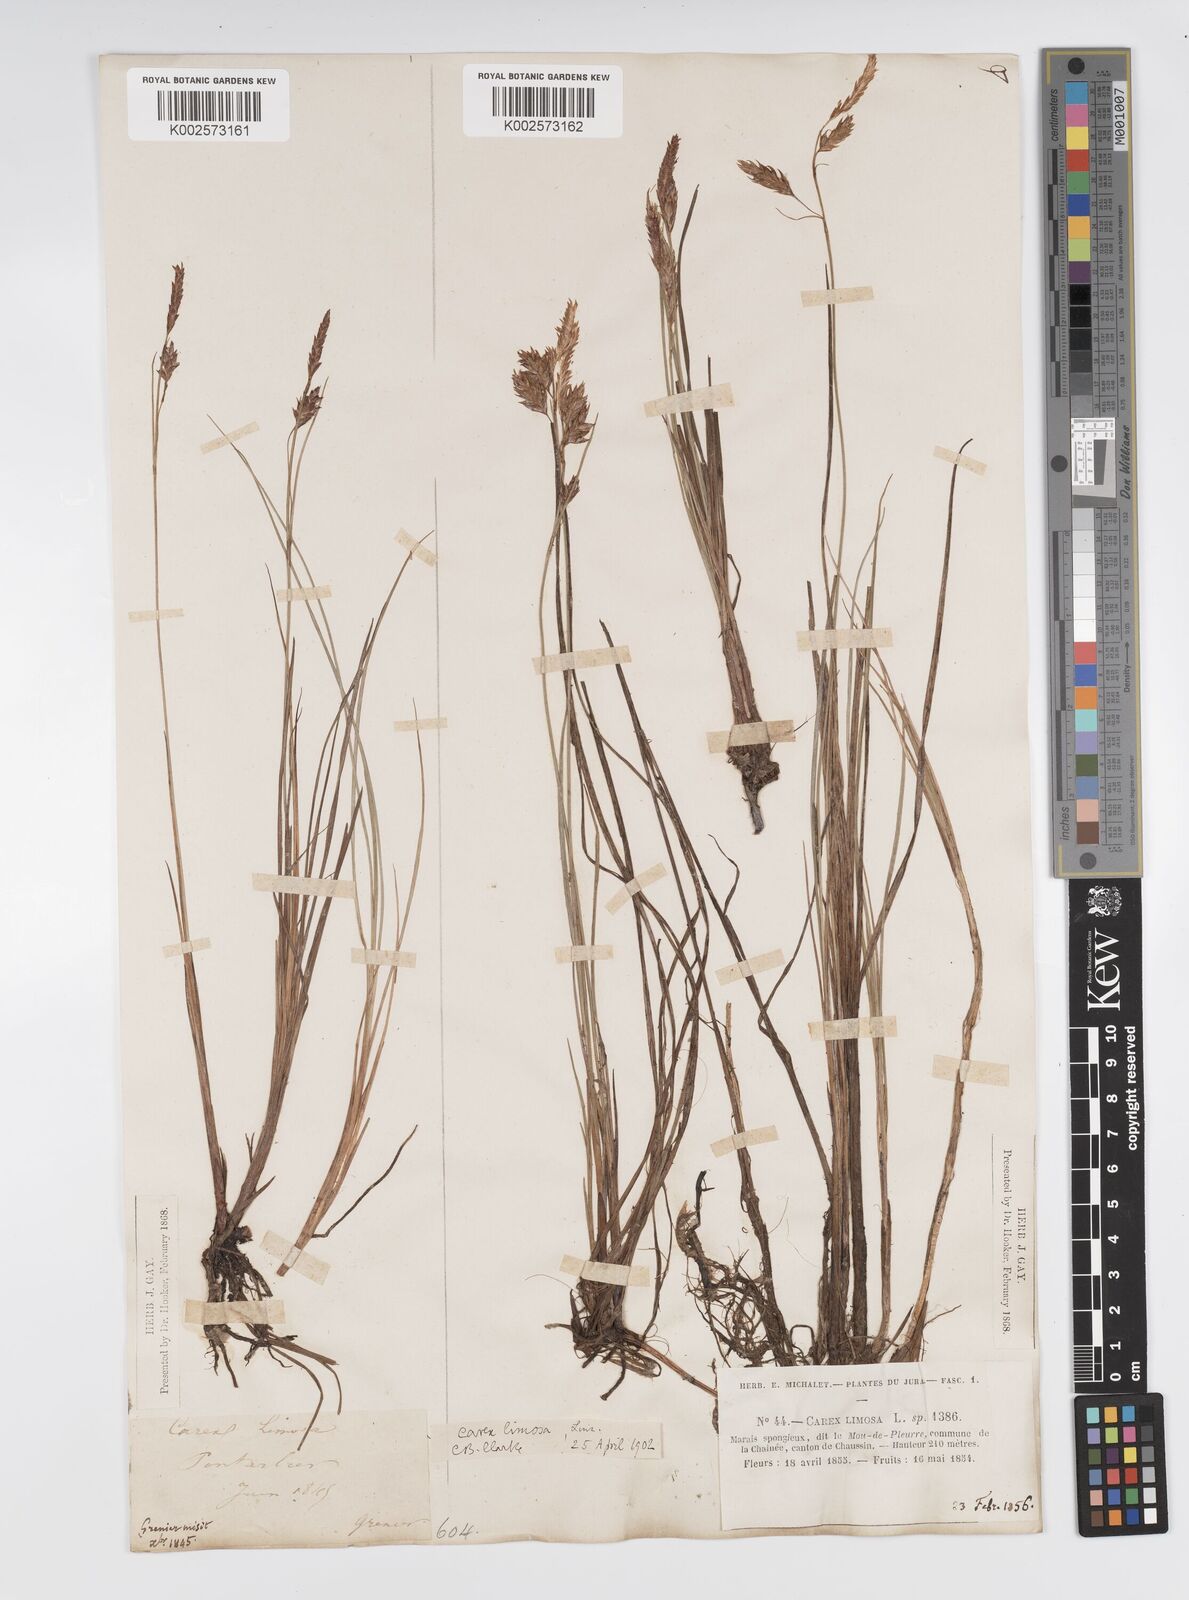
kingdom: Plantae
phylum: Tracheophyta
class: Liliopsida
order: Poales
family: Cyperaceae
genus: Carex
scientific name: Carex limosa
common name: Bog sedge
